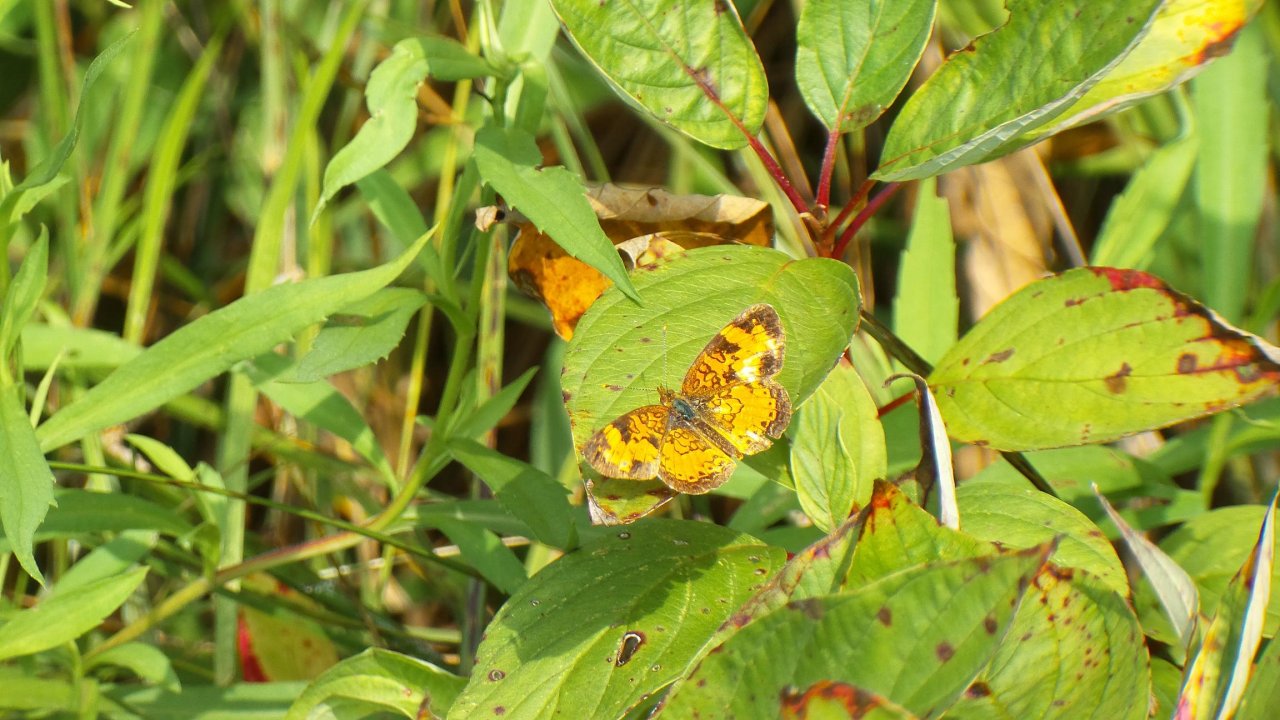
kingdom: Animalia
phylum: Arthropoda
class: Insecta
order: Lepidoptera
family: Nymphalidae
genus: Phyciodes
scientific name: Phyciodes tharos
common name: Northern Crescent
